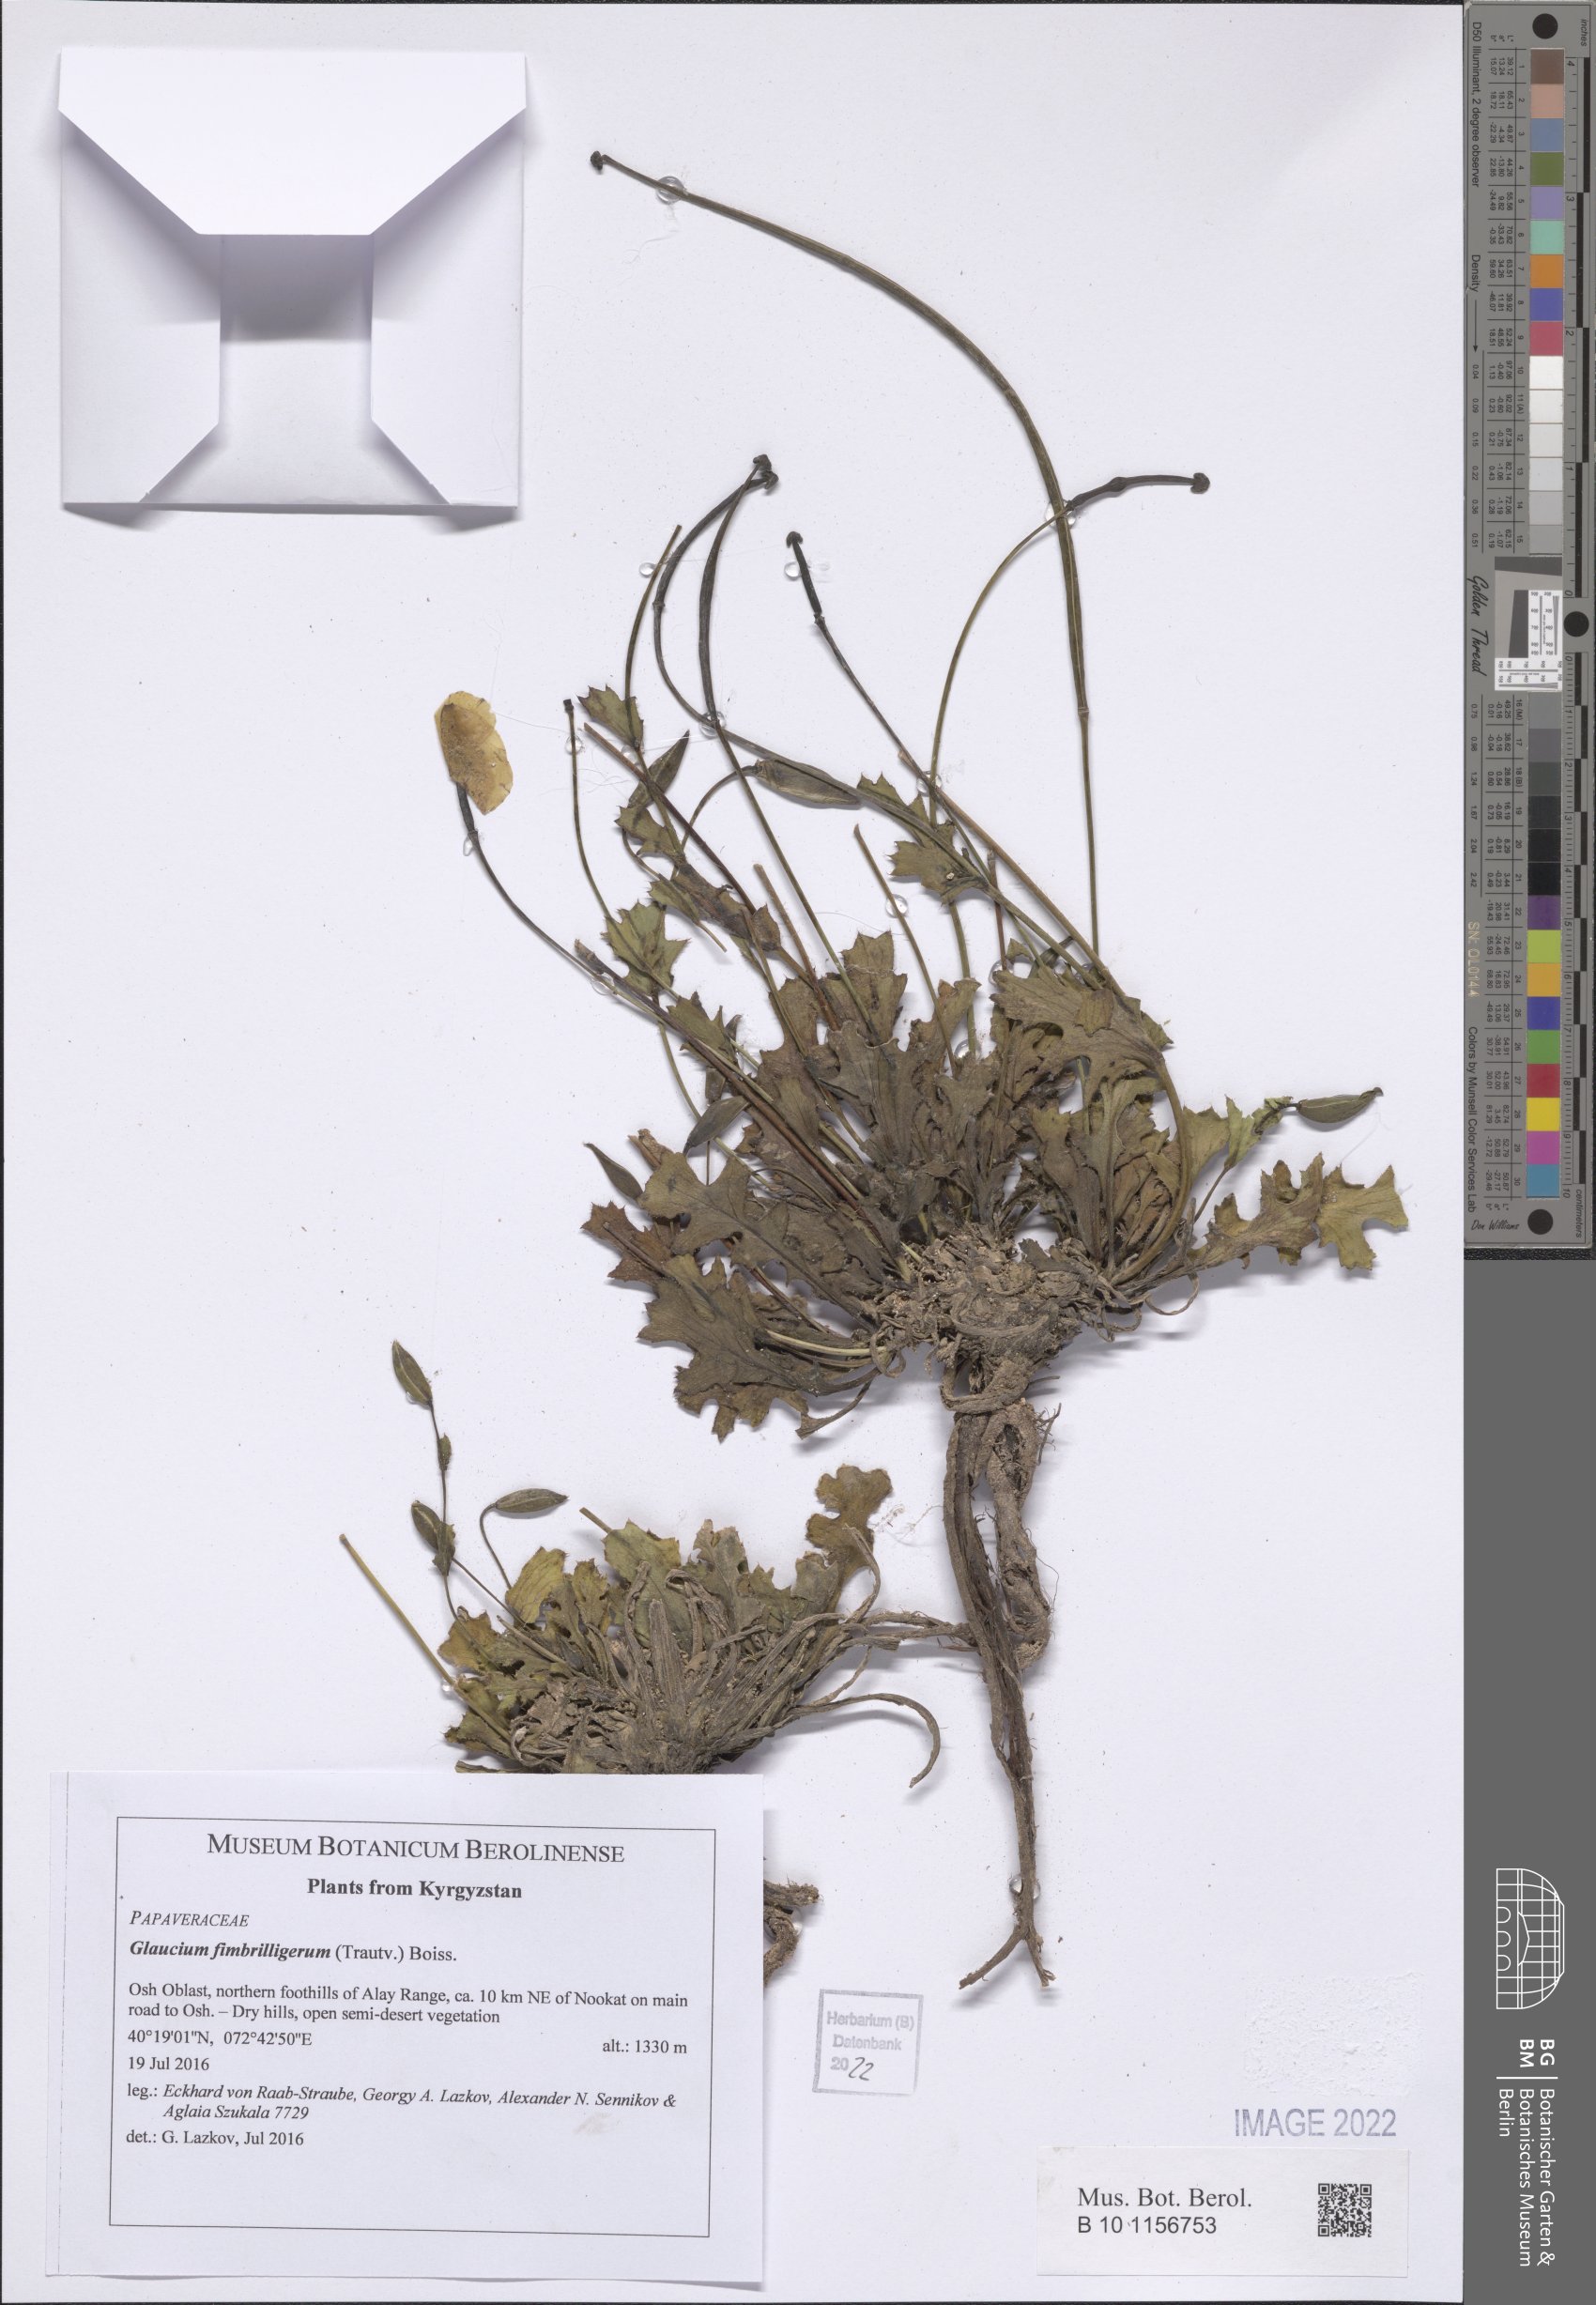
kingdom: Plantae
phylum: Tracheophyta
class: Magnoliopsida
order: Ranunculales
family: Papaveraceae
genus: Glaucium
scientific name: Glaucium fimbrilligerum
